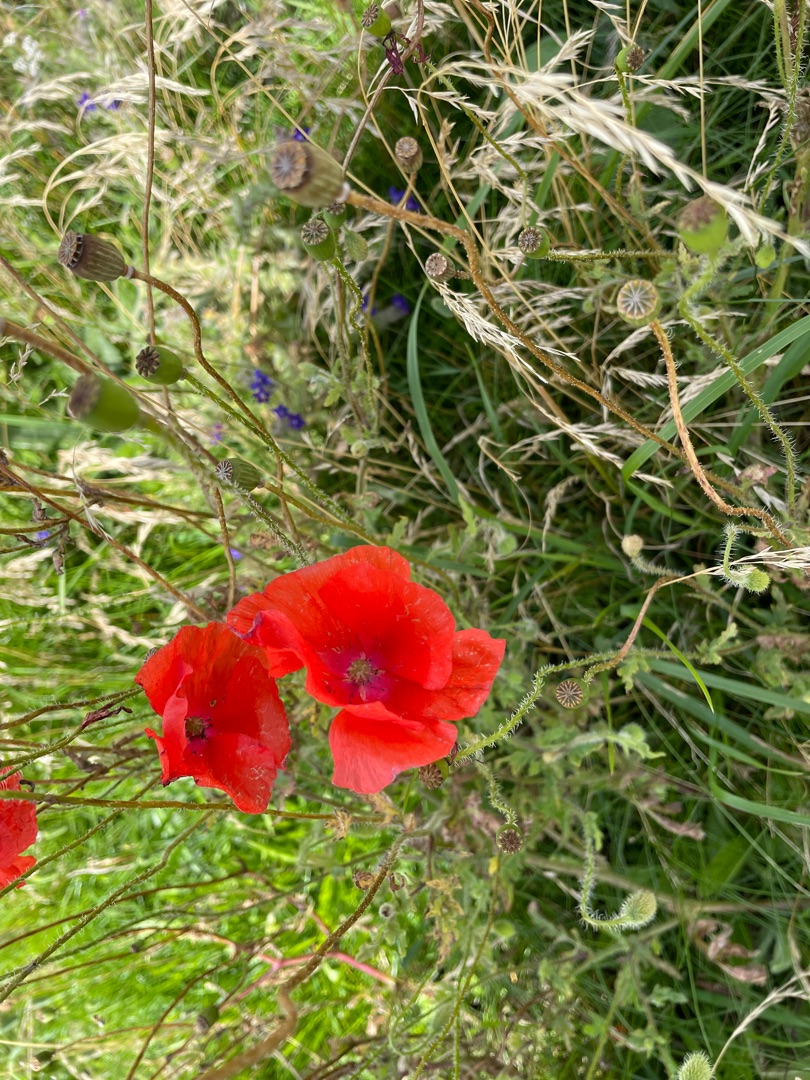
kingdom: Plantae
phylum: Tracheophyta
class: Magnoliopsida
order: Ranunculales
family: Papaveraceae
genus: Papaver
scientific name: Papaver rhoeas
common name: Korn-valmue
